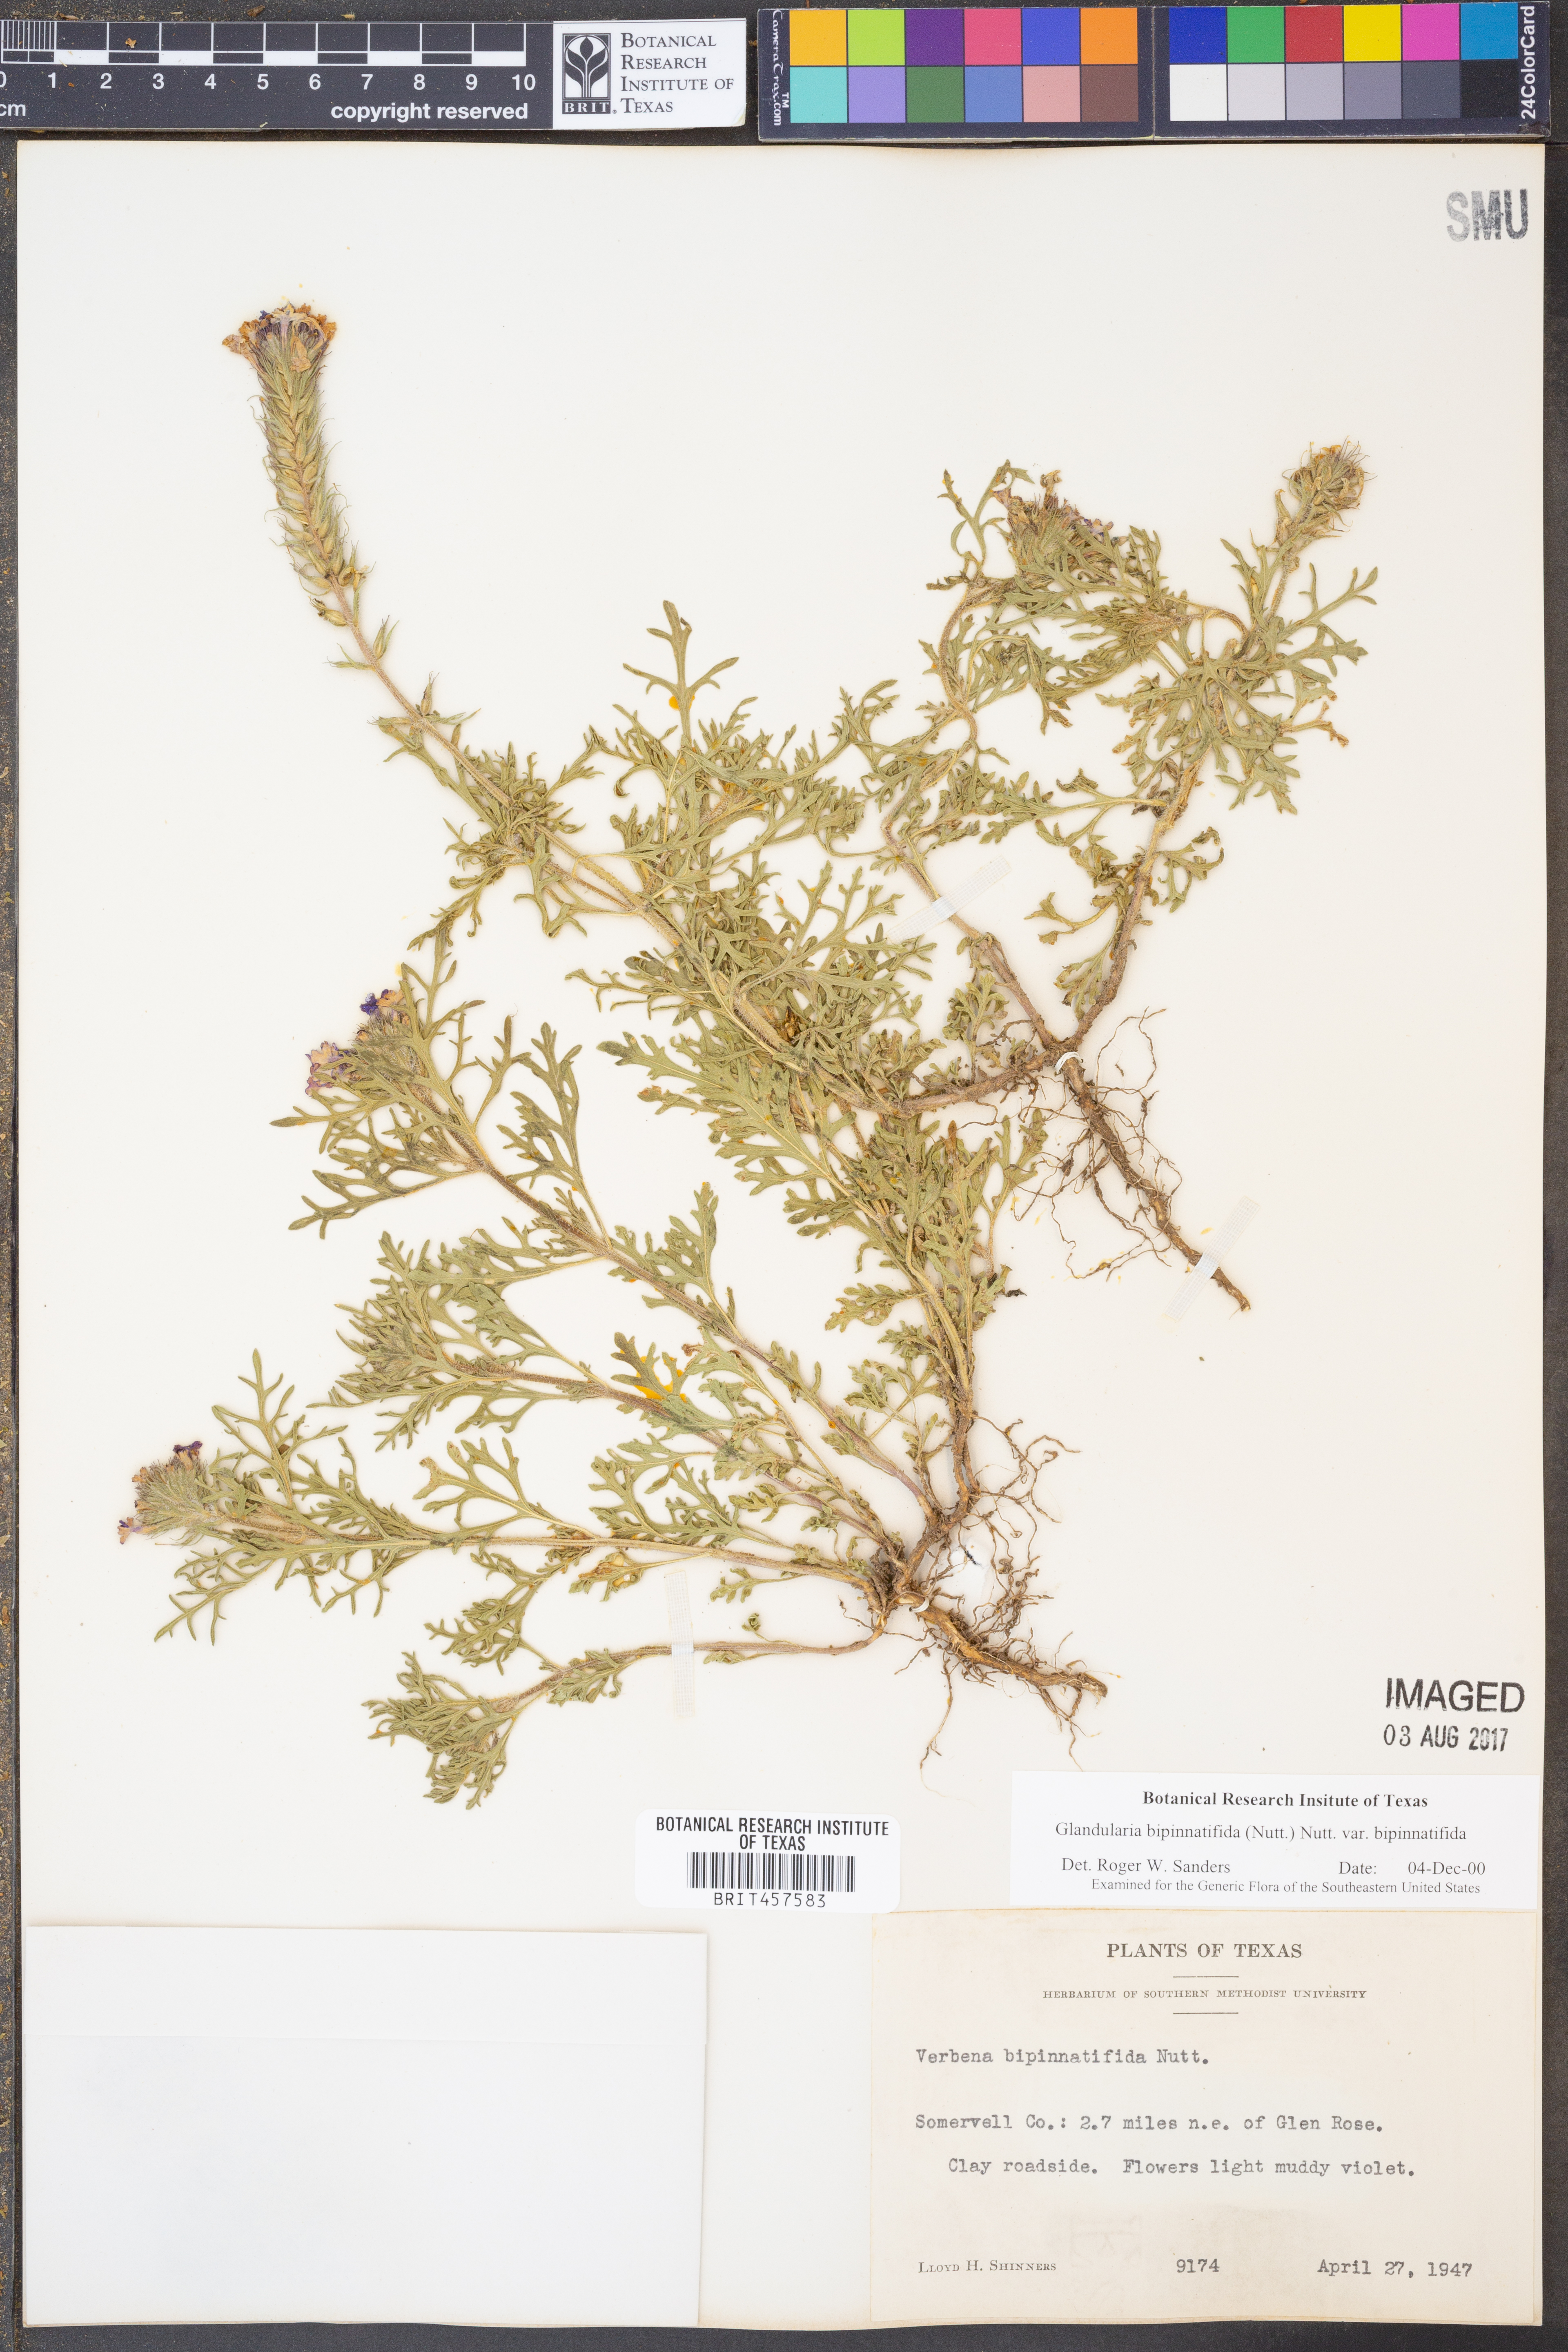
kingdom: Plantae
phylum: Tracheophyta
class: Magnoliopsida
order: Lamiales
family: Verbenaceae
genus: Verbena
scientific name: Verbena bipinnatifida
